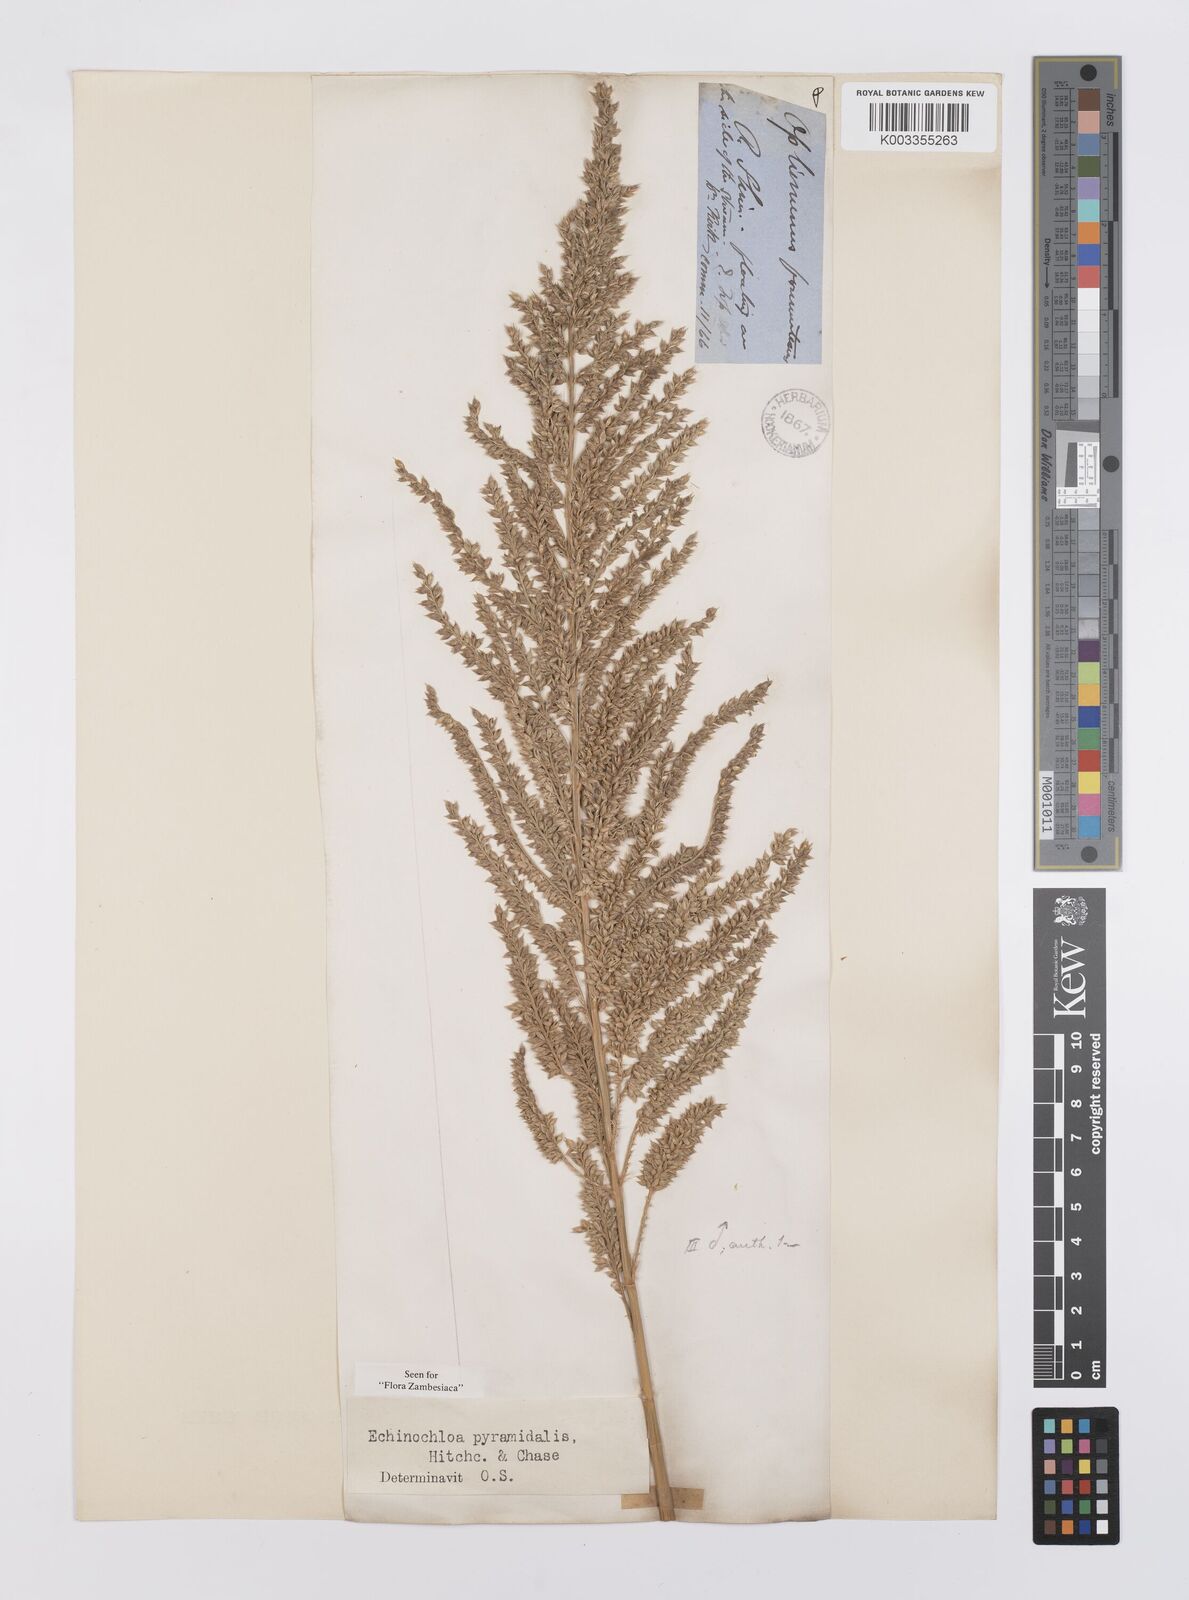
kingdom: Plantae
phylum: Tracheophyta
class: Liliopsida
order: Poales
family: Poaceae
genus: Echinochloa
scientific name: Echinochloa pyramidalis
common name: Antelope grass
